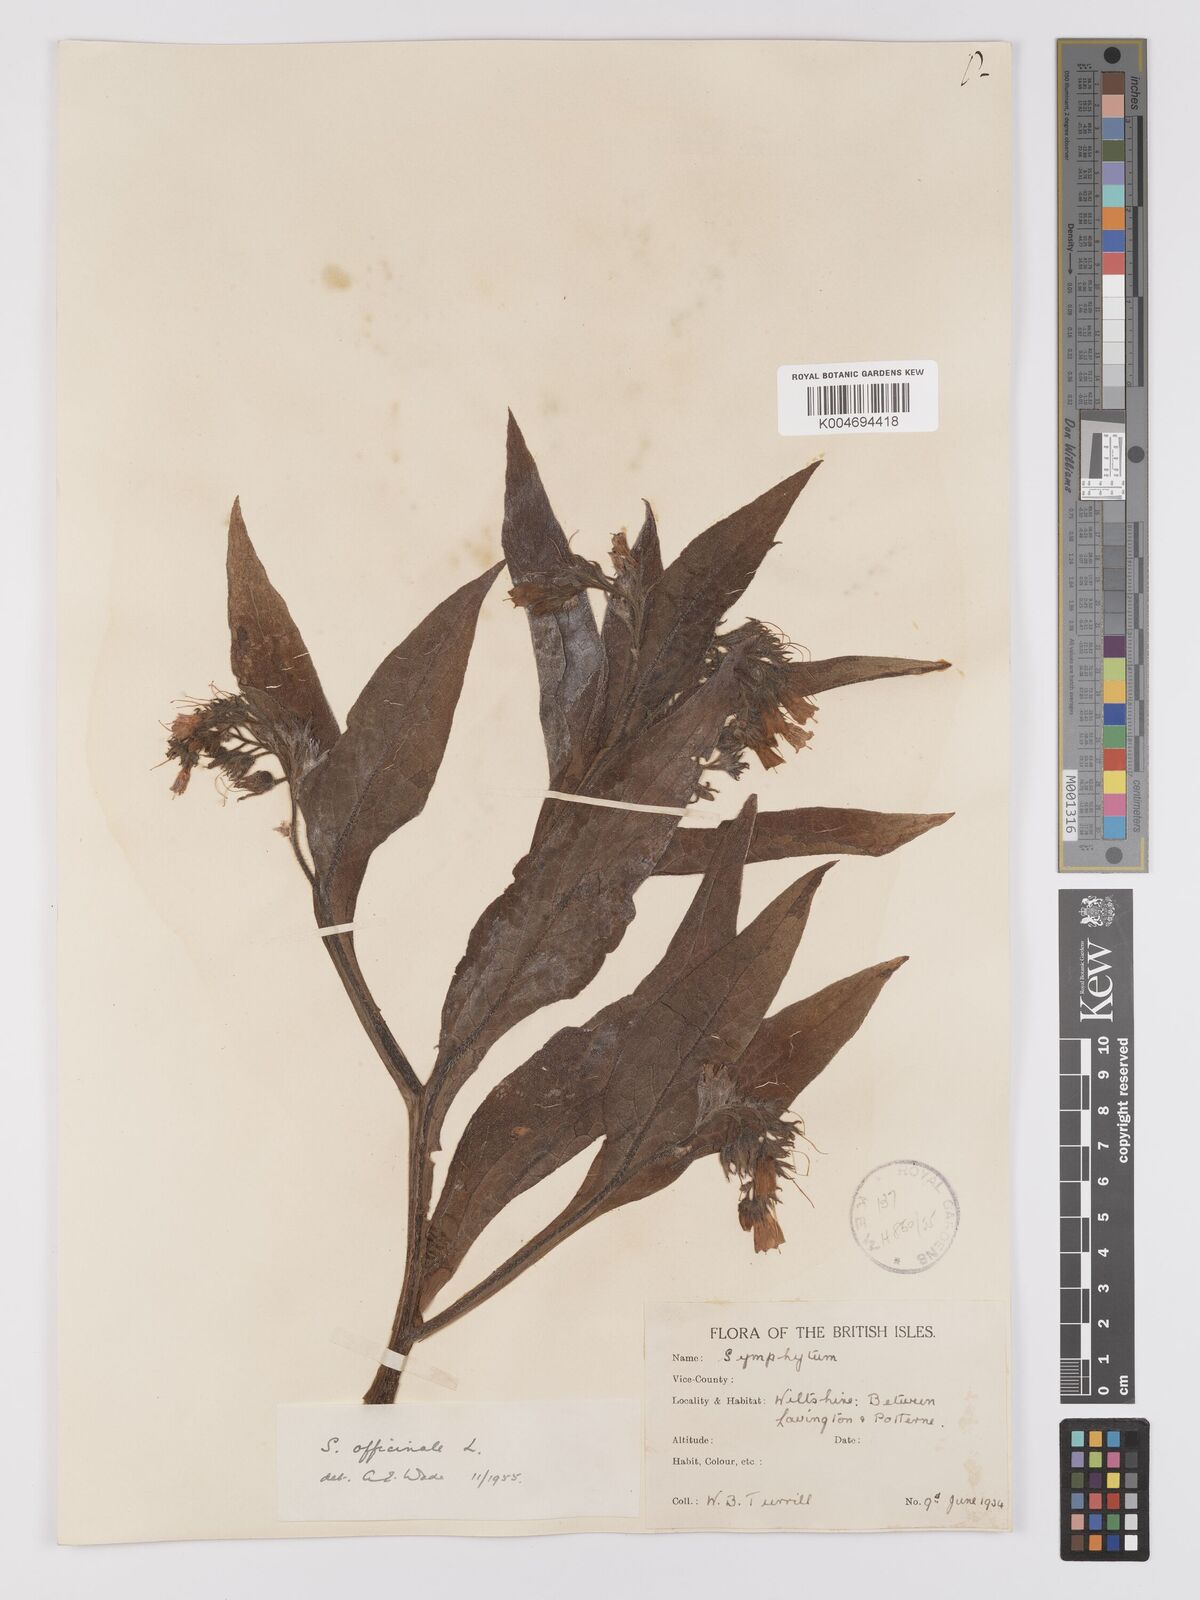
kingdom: Plantae
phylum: Tracheophyta
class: Magnoliopsida
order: Boraginales
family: Boraginaceae
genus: Symphytum
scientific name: Symphytum officinale
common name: Common comfrey
